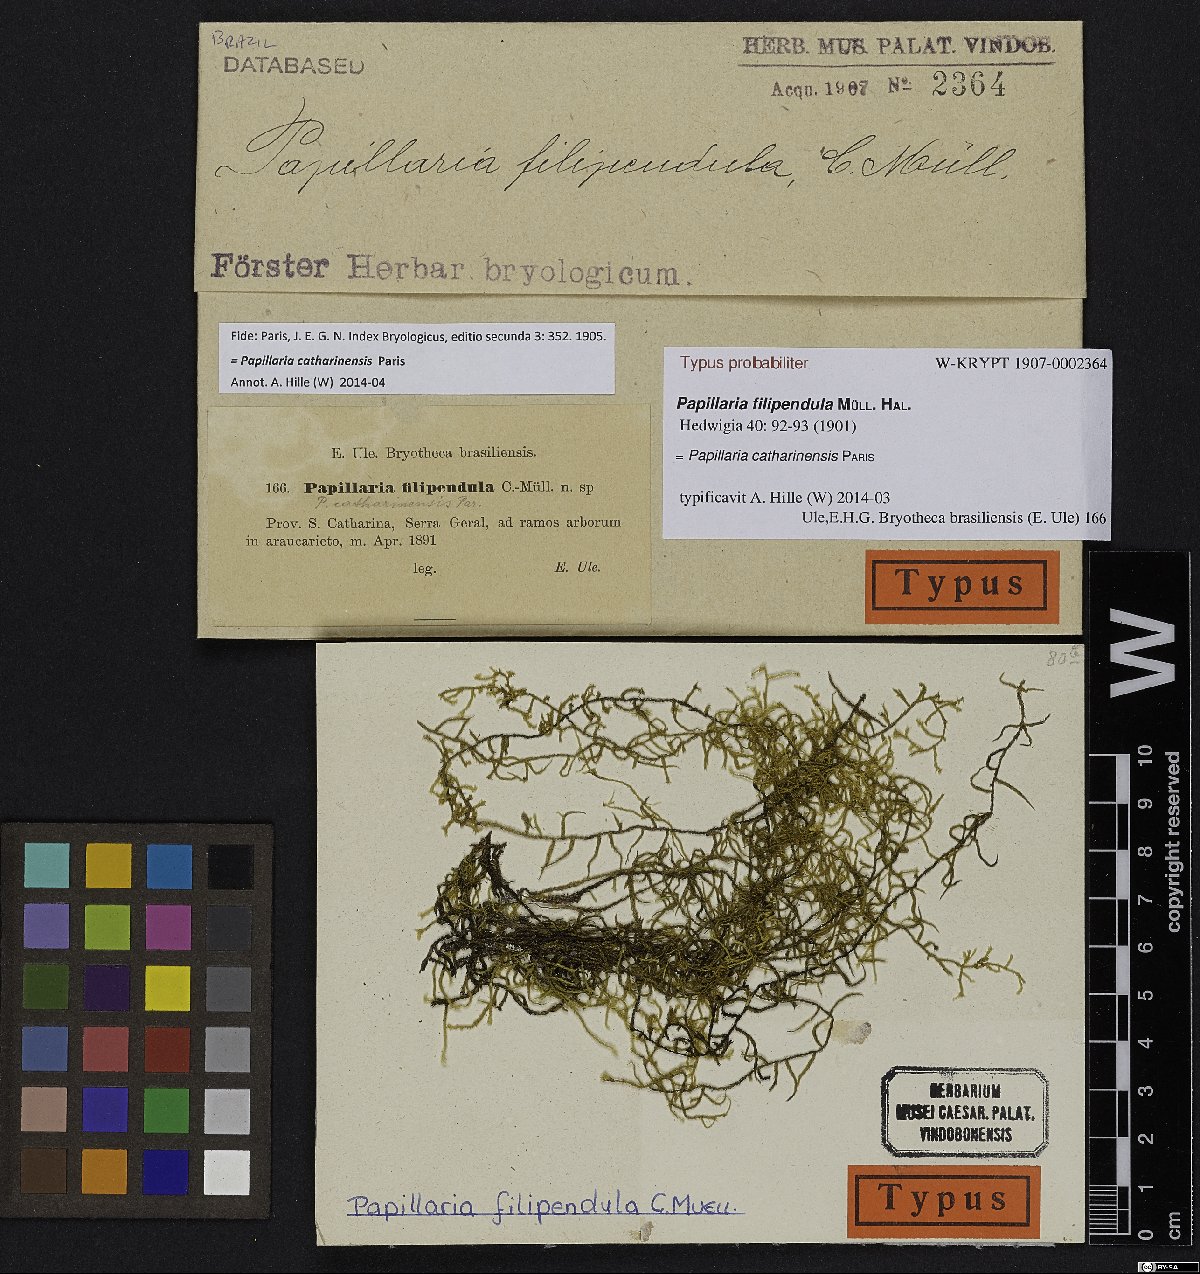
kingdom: Plantae
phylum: Bryophyta
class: Bryopsida
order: Hypnales
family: Meteoriaceae
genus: Papillaria
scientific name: Papillaria catharinensis
